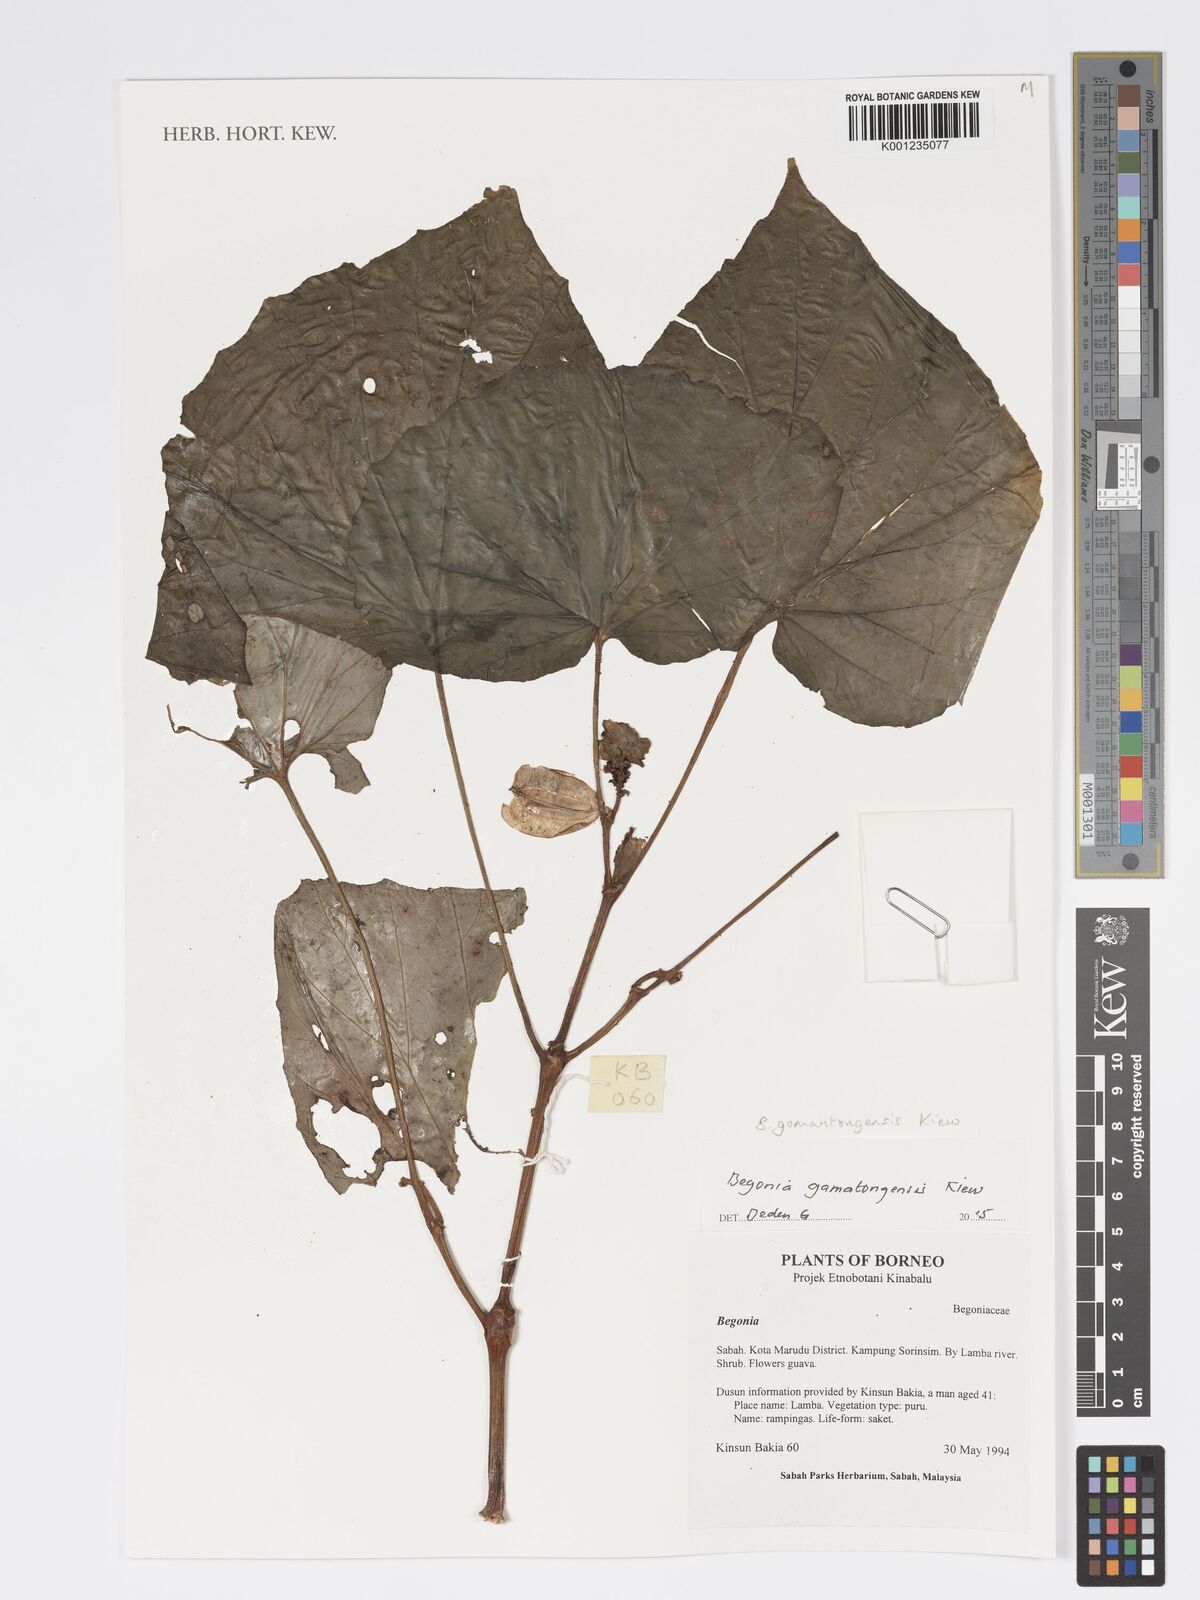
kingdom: Plantae
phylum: Tracheophyta
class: Magnoliopsida
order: Cucurbitales
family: Begoniaceae
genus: Begonia
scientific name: Begonia gomantongensis
